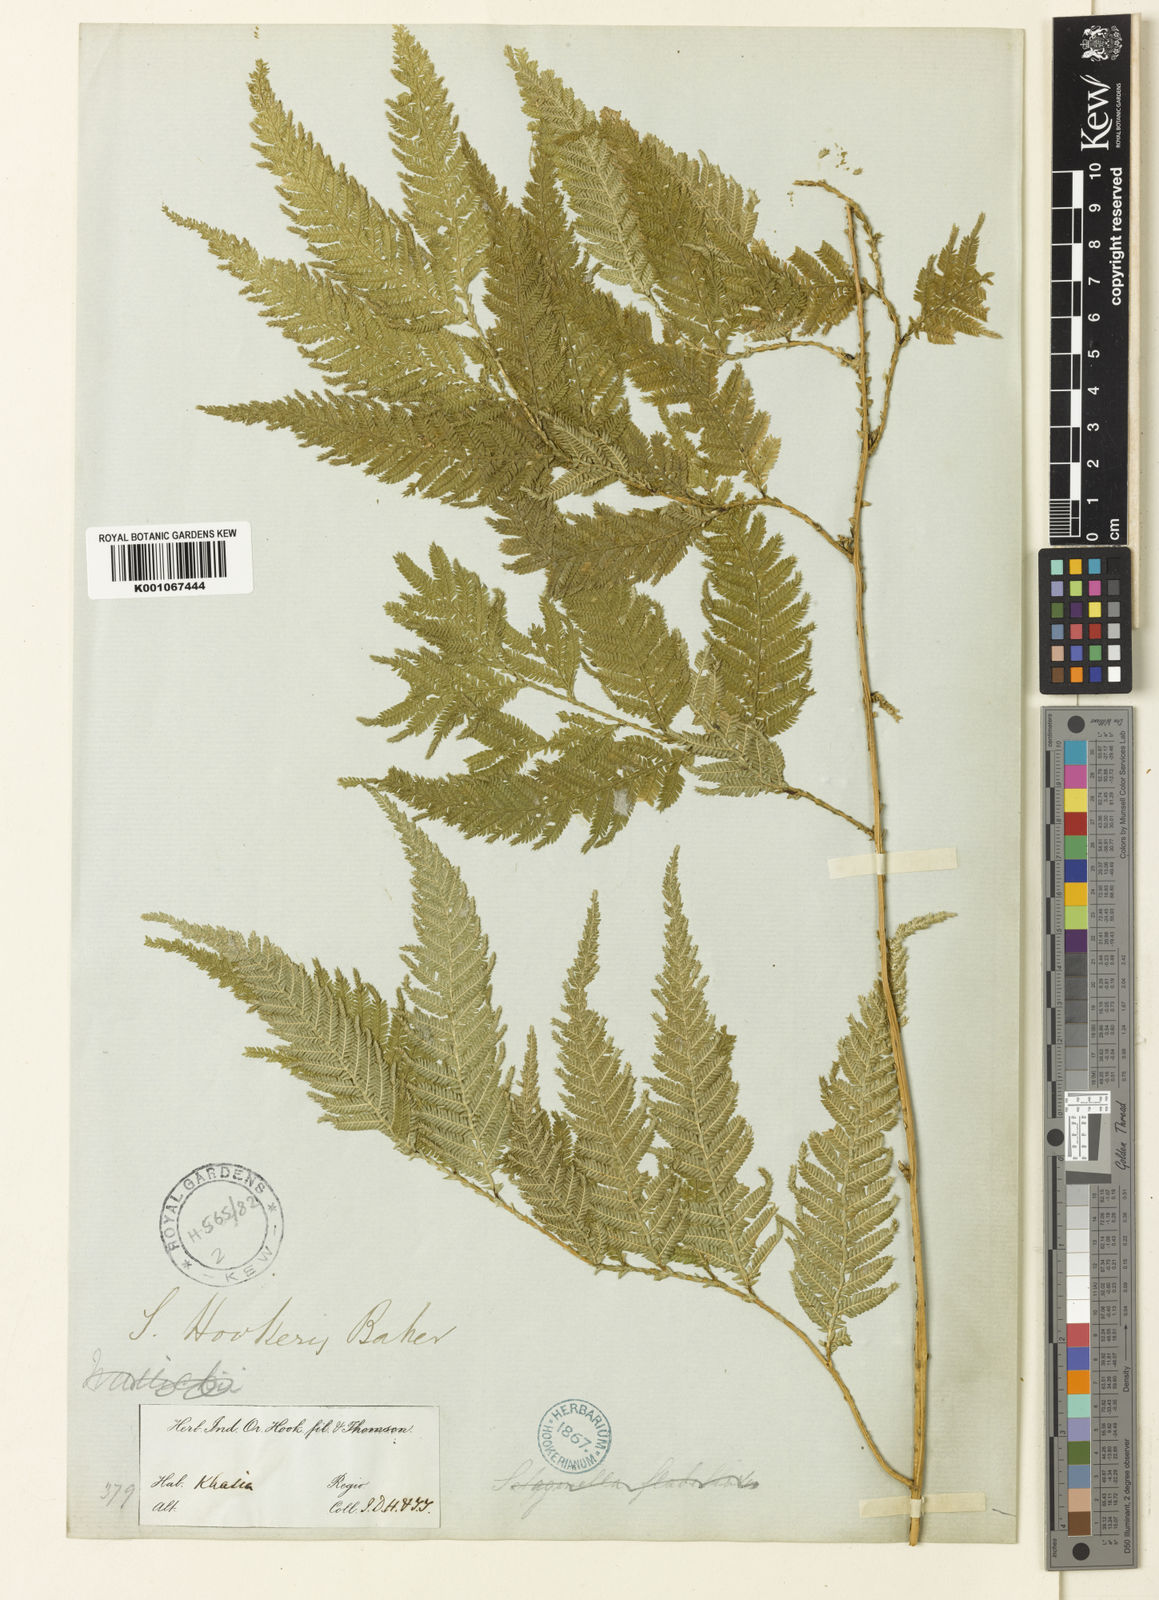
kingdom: Plantae
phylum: Tracheophyta
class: Lycopodiopsida
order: Selaginellales
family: Selaginellaceae
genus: Selaginella
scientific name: Selaginella
